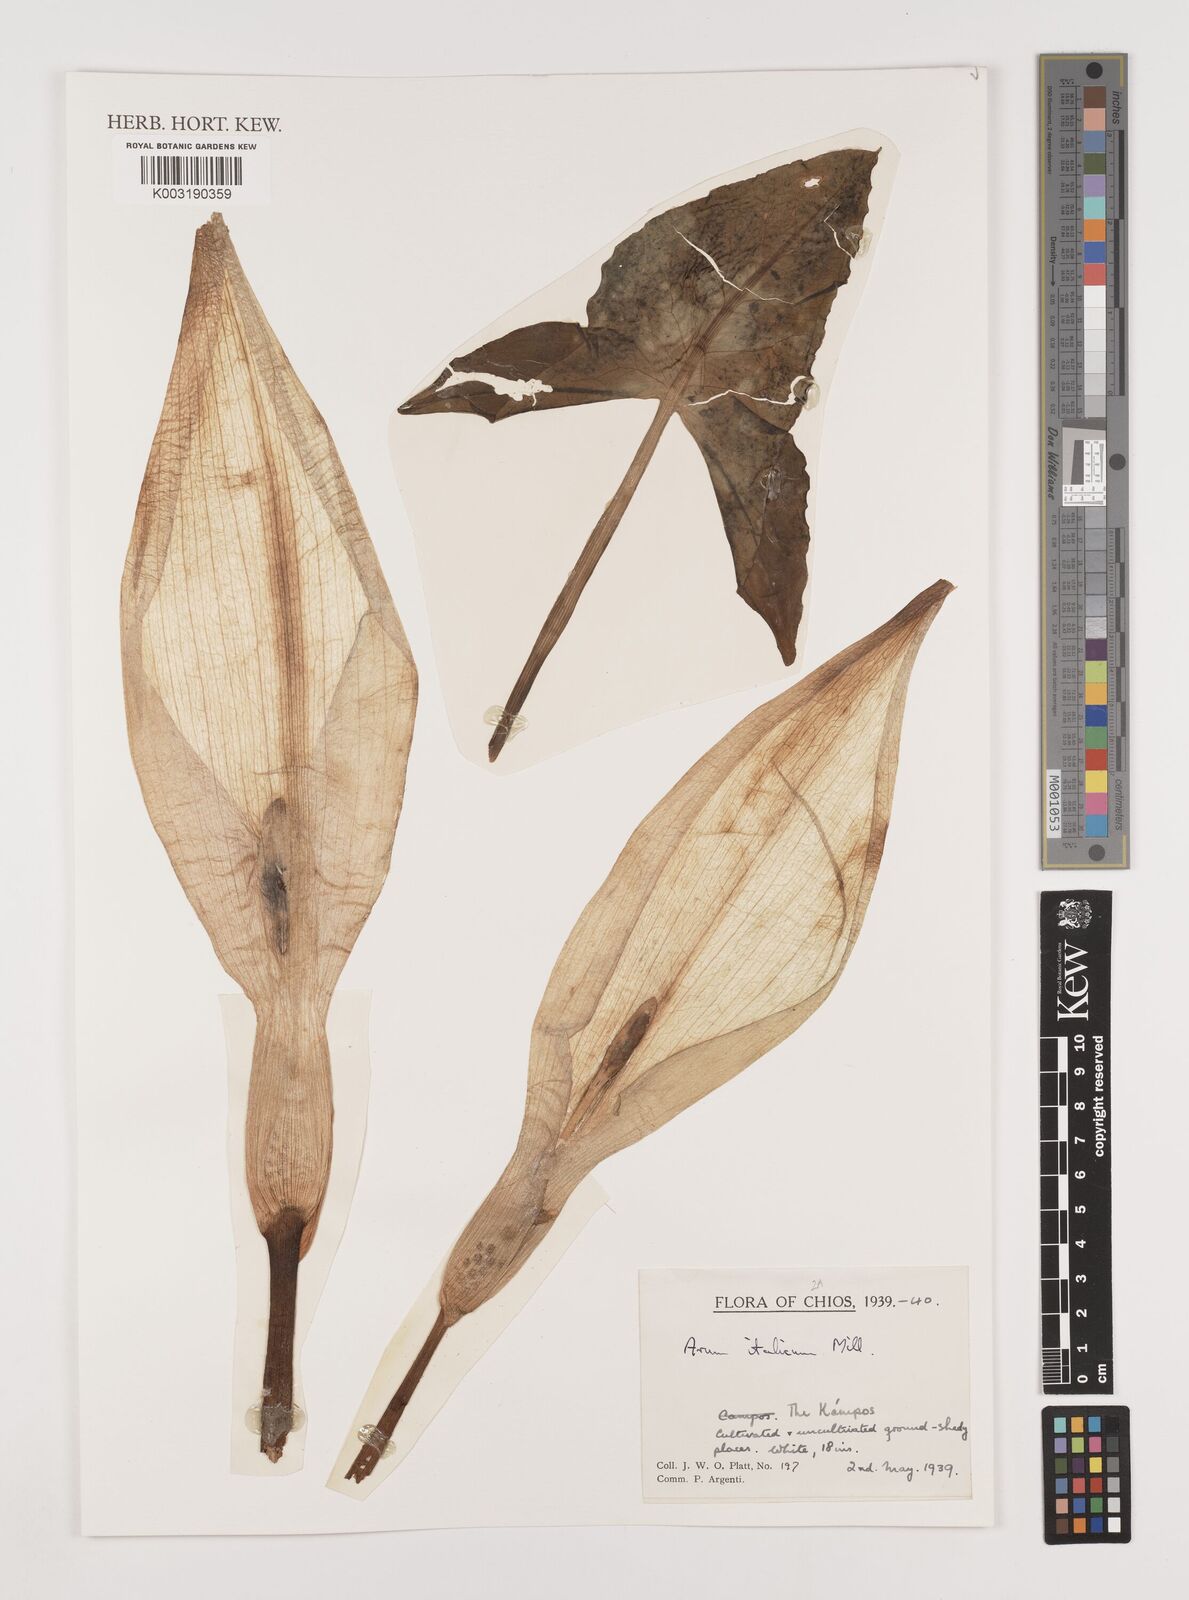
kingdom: Plantae
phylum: Tracheophyta
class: Liliopsida
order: Alismatales
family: Araceae
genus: Arum
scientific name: Arum italicum
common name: Italian lords-and-ladies
